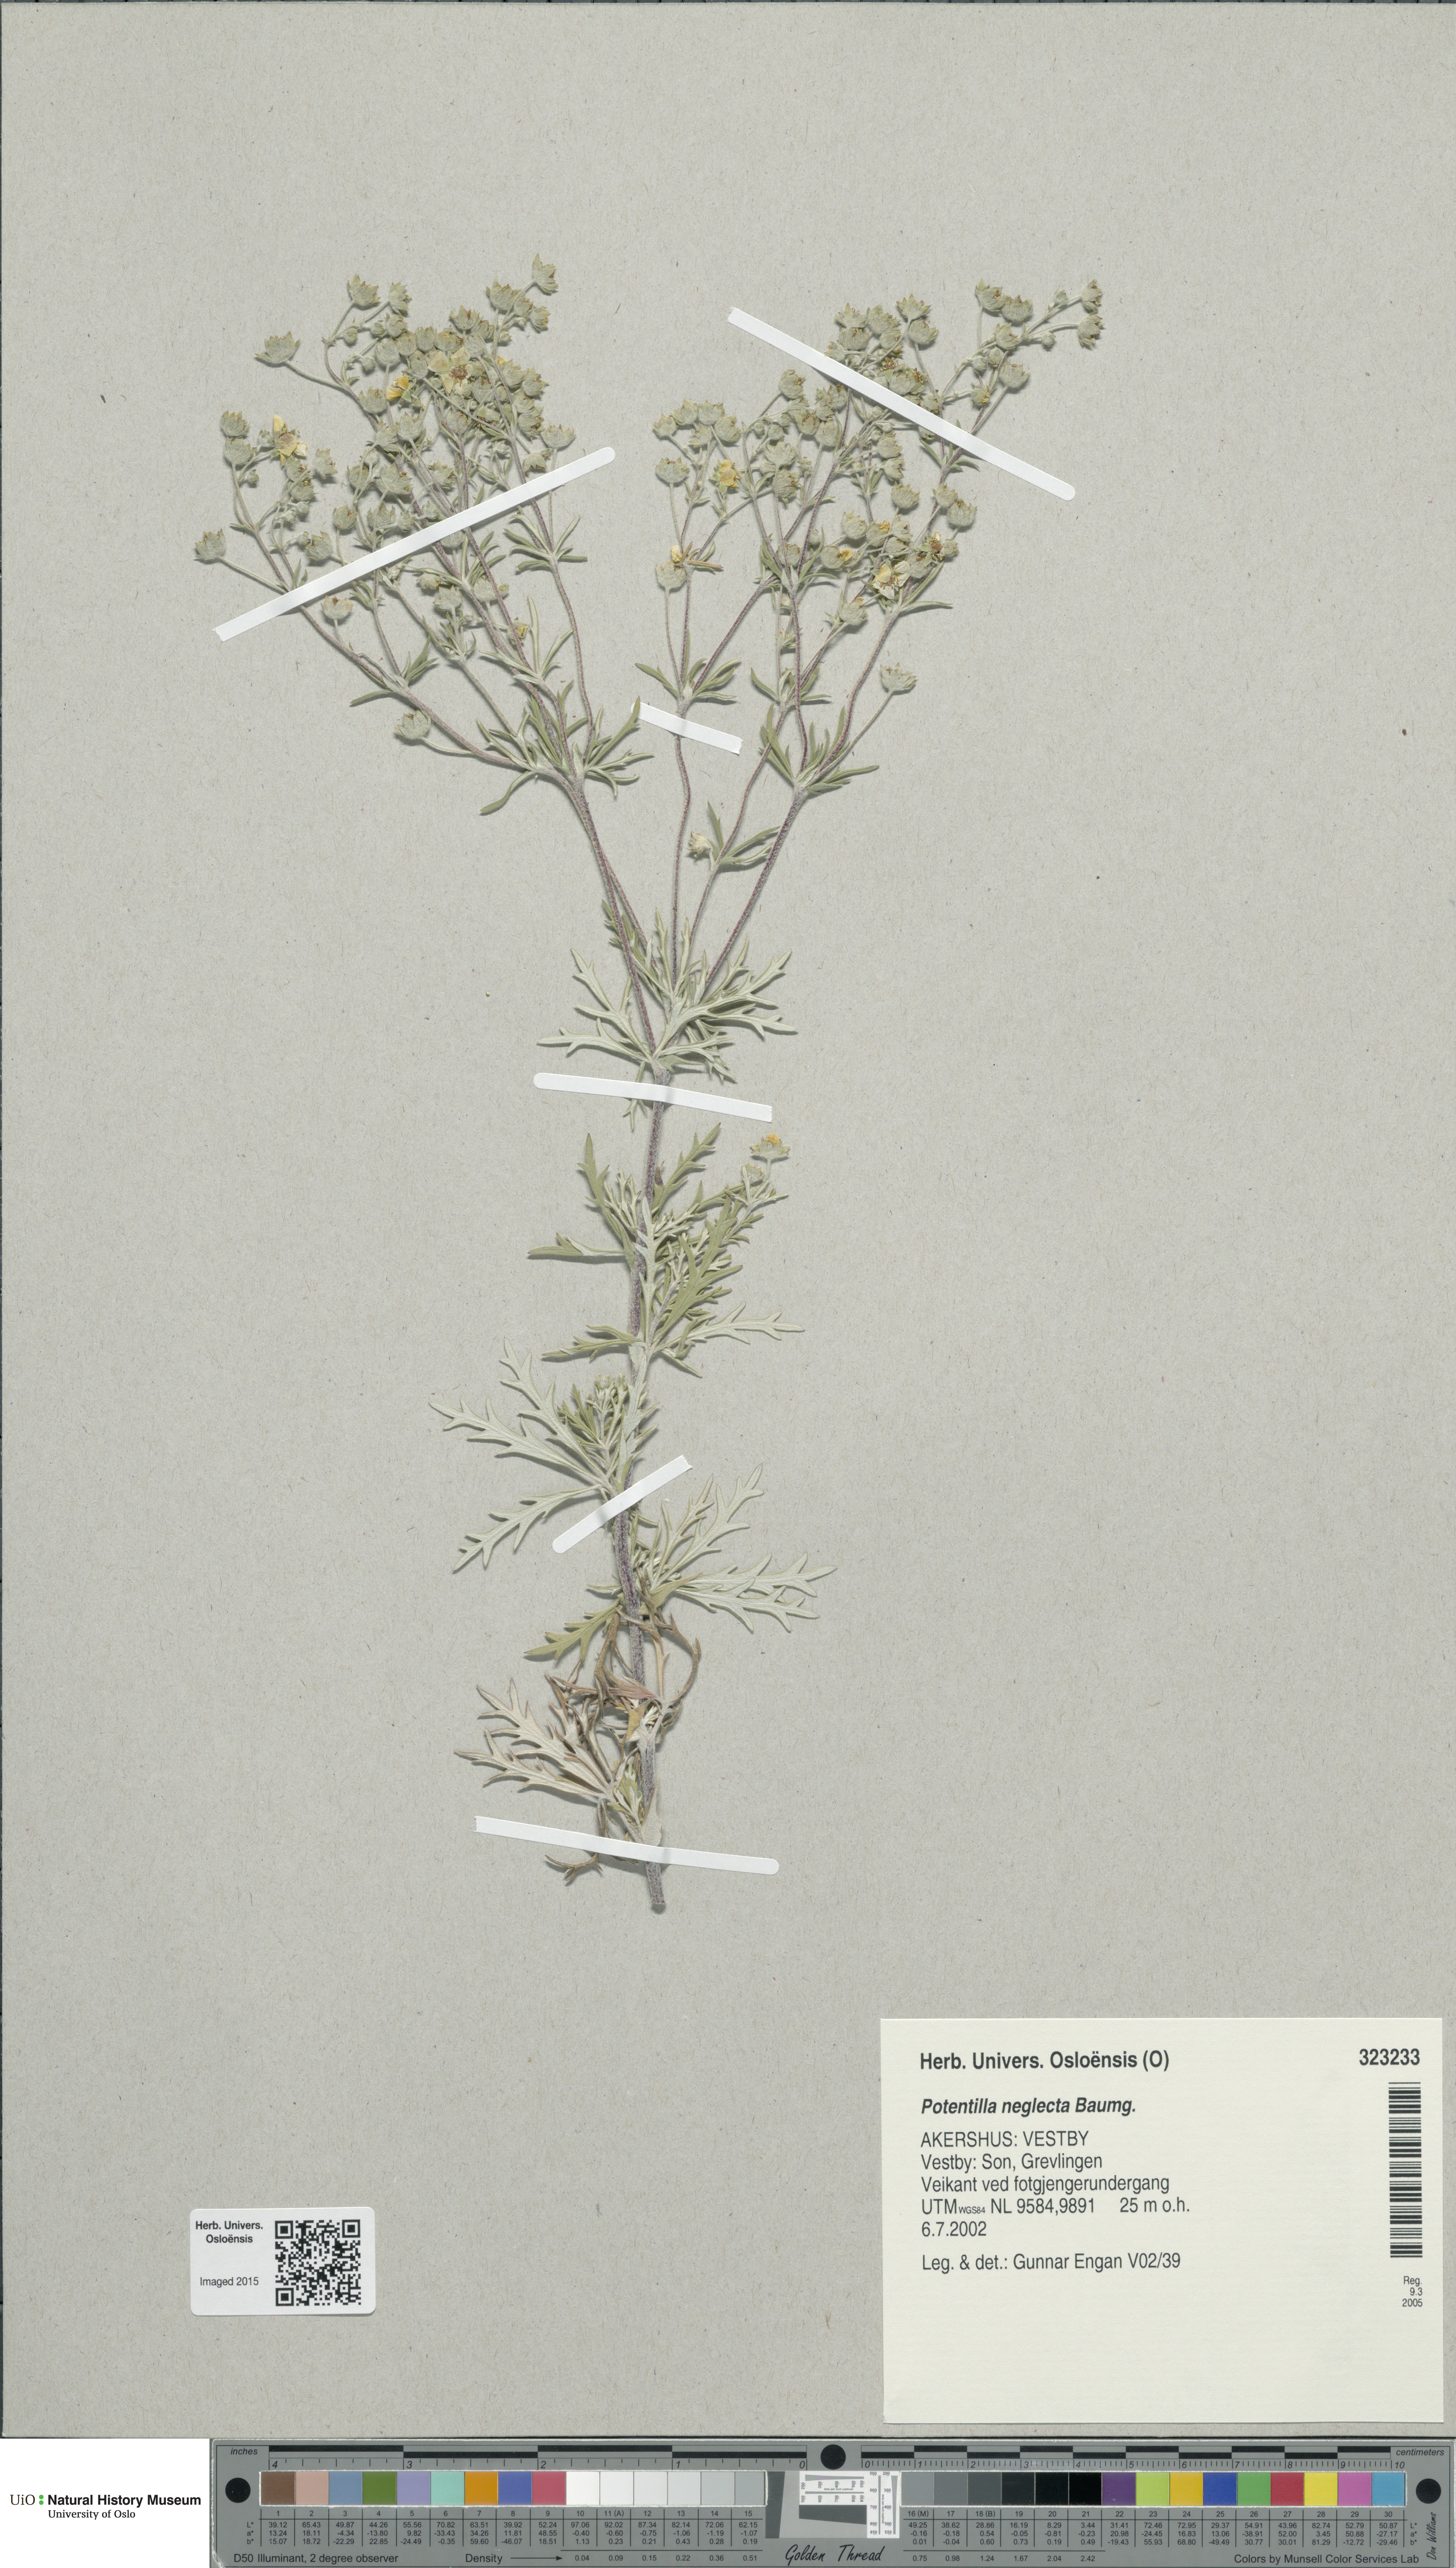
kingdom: Plantae
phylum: Tracheophyta
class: Magnoliopsida
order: Rosales
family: Rosaceae
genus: Potentilla
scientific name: Potentilla neglecta
